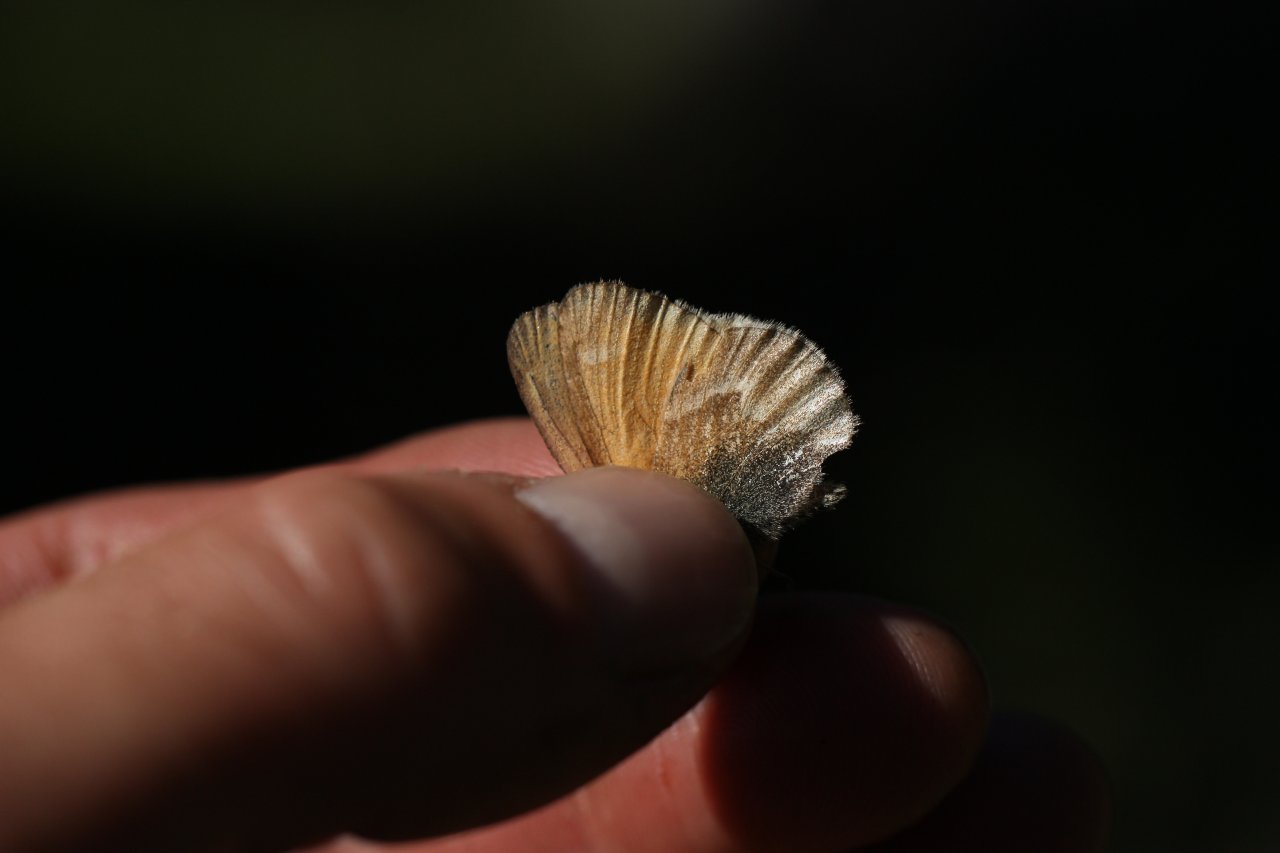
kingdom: Animalia
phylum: Arthropoda
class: Insecta
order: Lepidoptera
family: Nymphalidae
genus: Coenonympha
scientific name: Coenonympha tullia
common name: Large Heath
